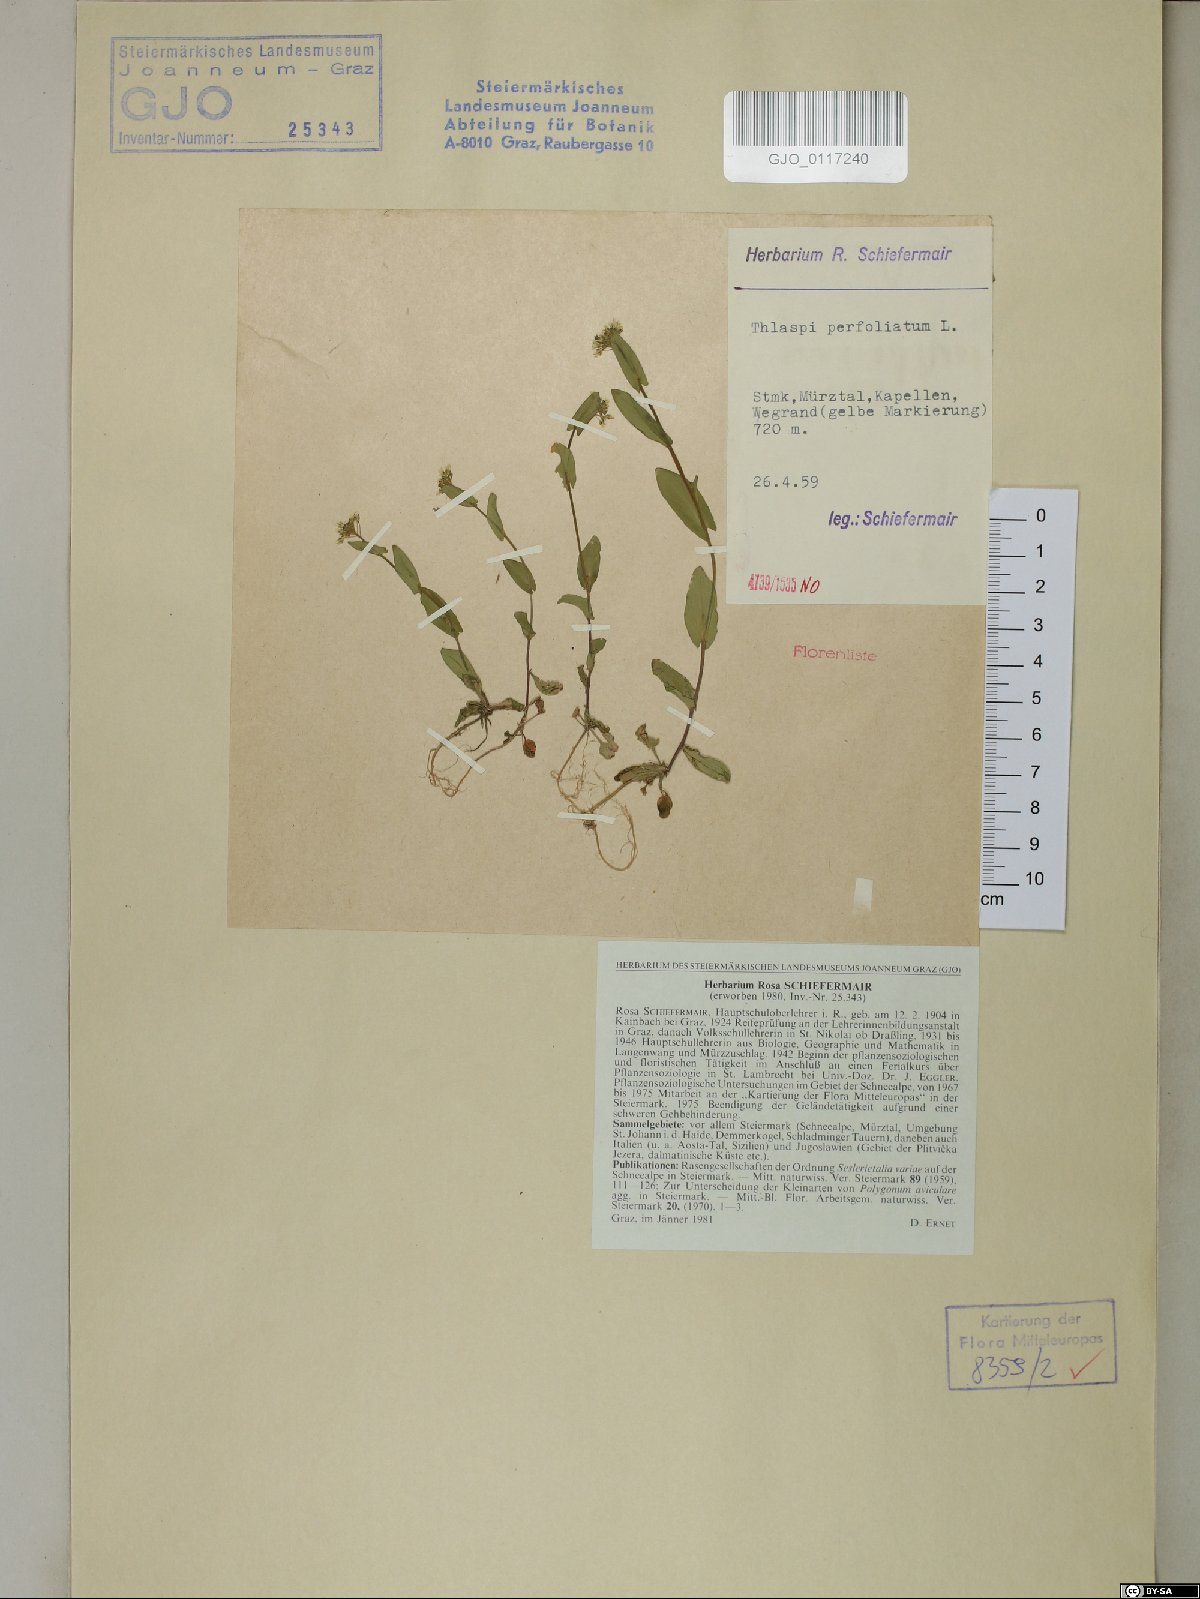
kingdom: Plantae
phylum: Tracheophyta
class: Magnoliopsida
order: Brassicales
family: Brassicaceae
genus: Noccaea
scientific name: Noccaea perfoliata
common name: Perfoliate pennycress
